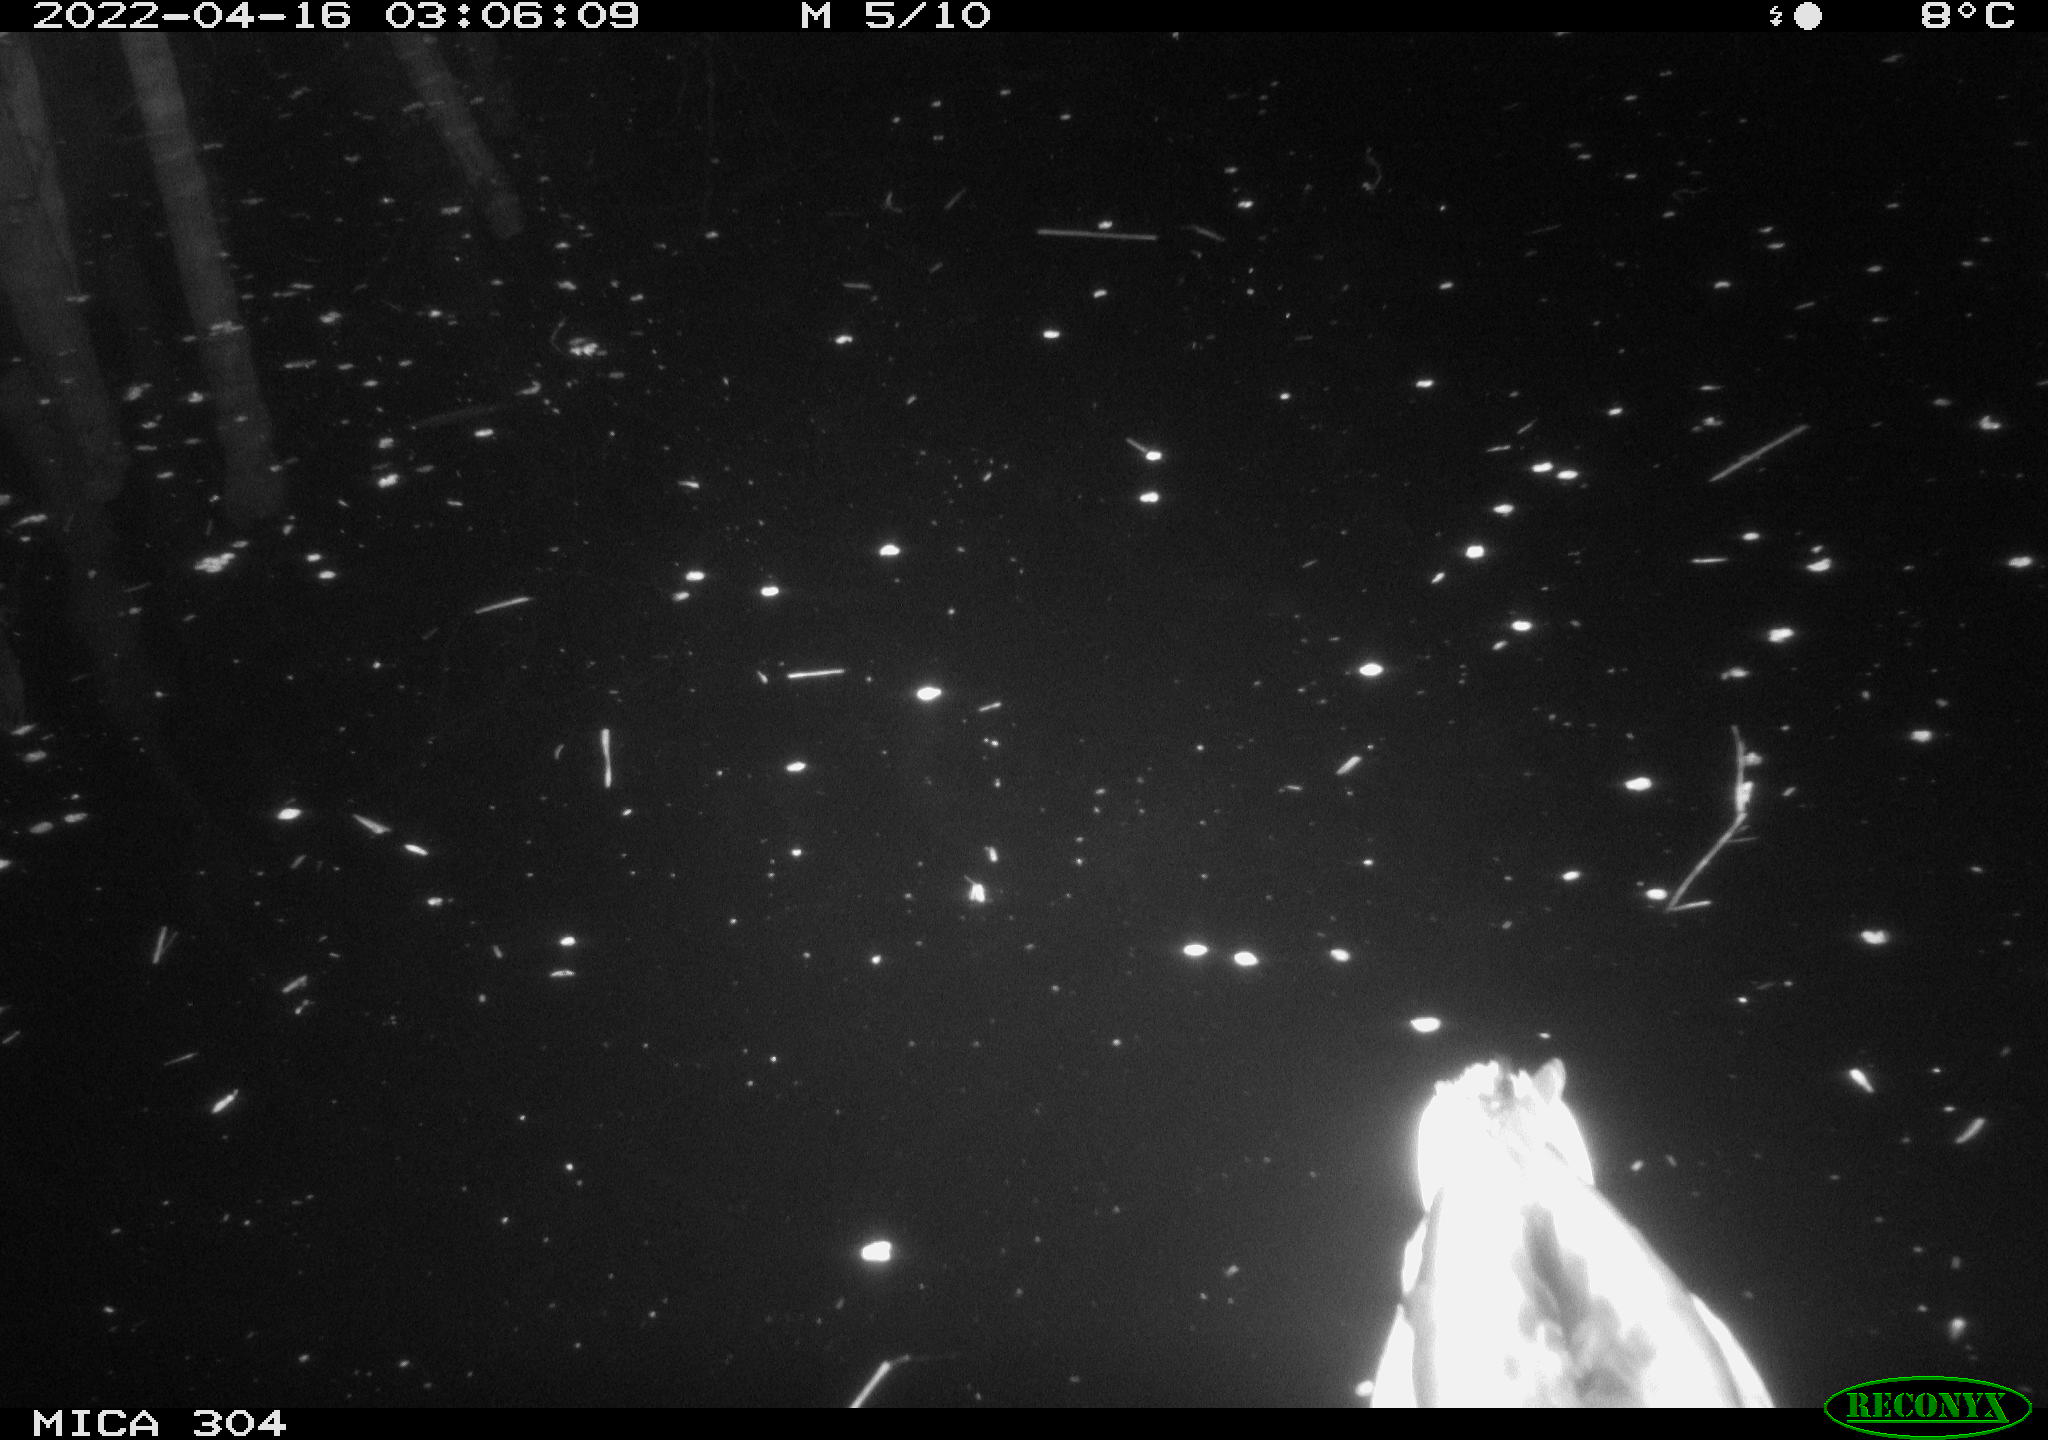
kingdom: Animalia
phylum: Chordata
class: Aves
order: Anseriformes
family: Anatidae
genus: Anas
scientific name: Anas platyrhynchos
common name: Mallard
